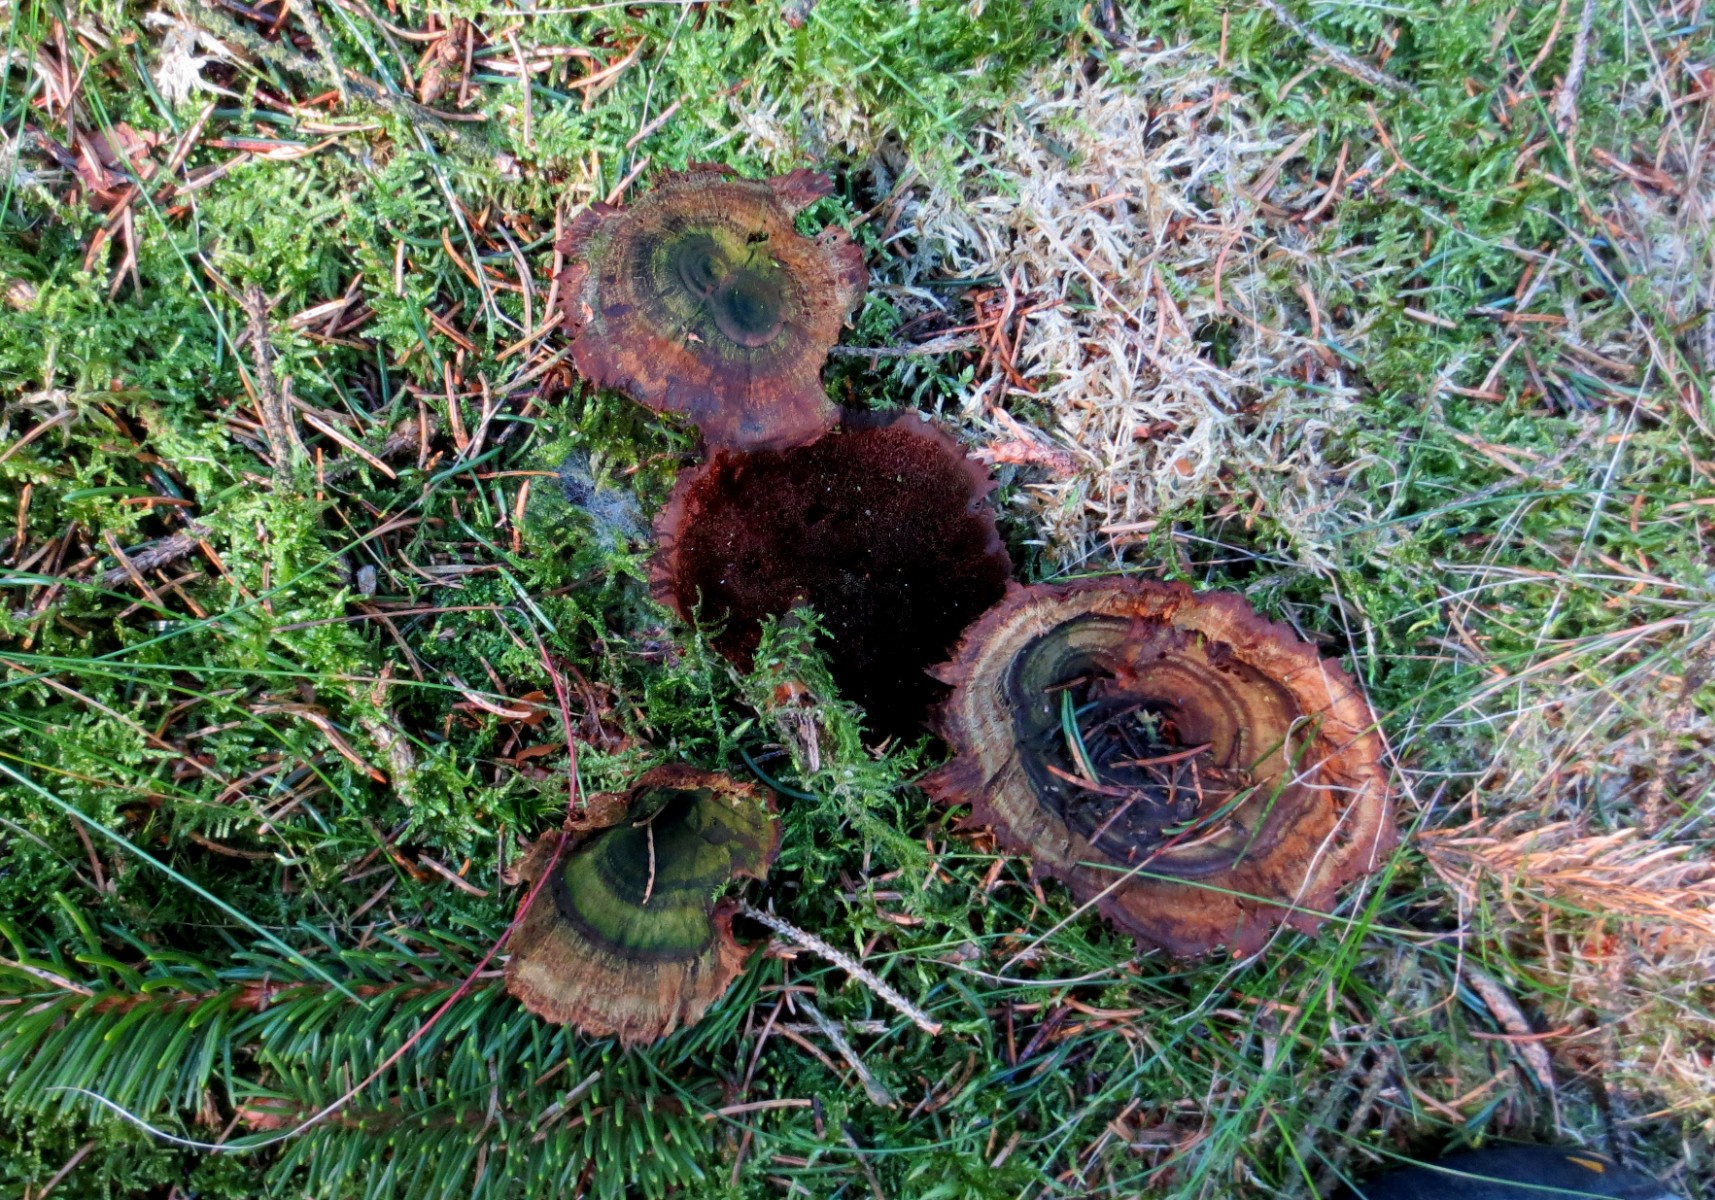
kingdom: Fungi
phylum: Basidiomycota
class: Agaricomycetes
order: Hymenochaetales
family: Hymenochaetaceae
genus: Coltricia
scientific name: Coltricia perennis
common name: almindelig sandporesvamp
